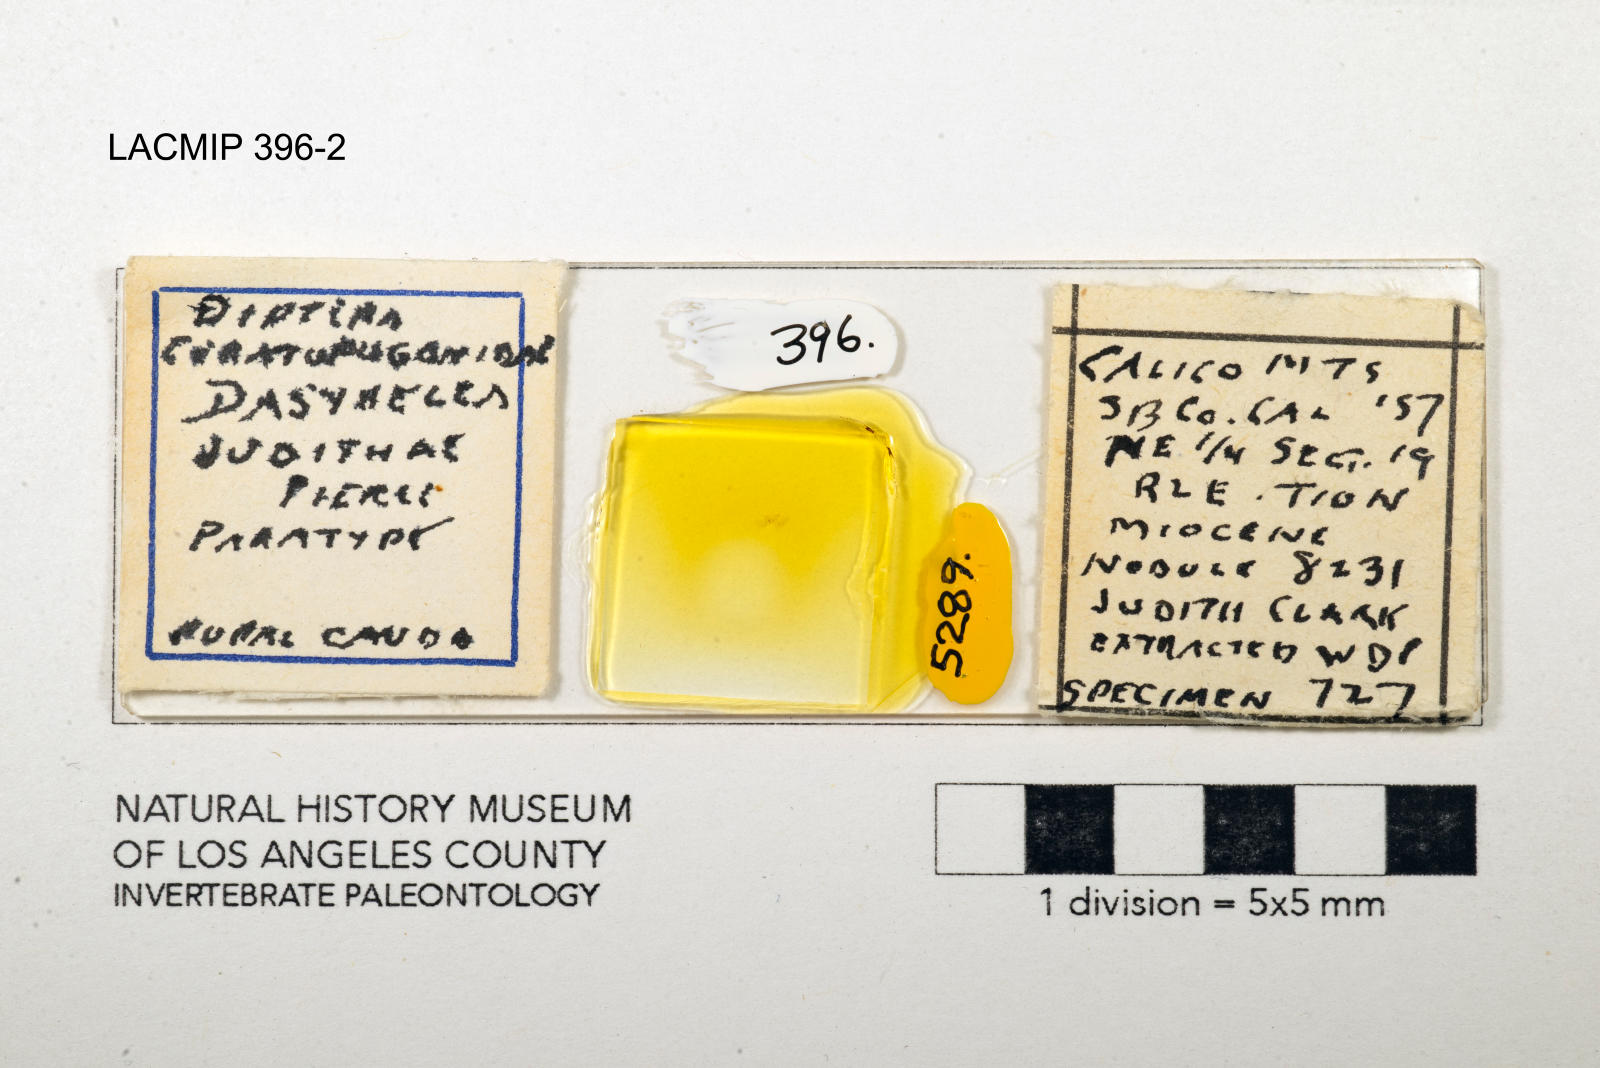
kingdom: Animalia
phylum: Arthropoda
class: Insecta
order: Diptera
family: Ceratopogonidae
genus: Dasyhelea
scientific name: Dasyhelea judithae
